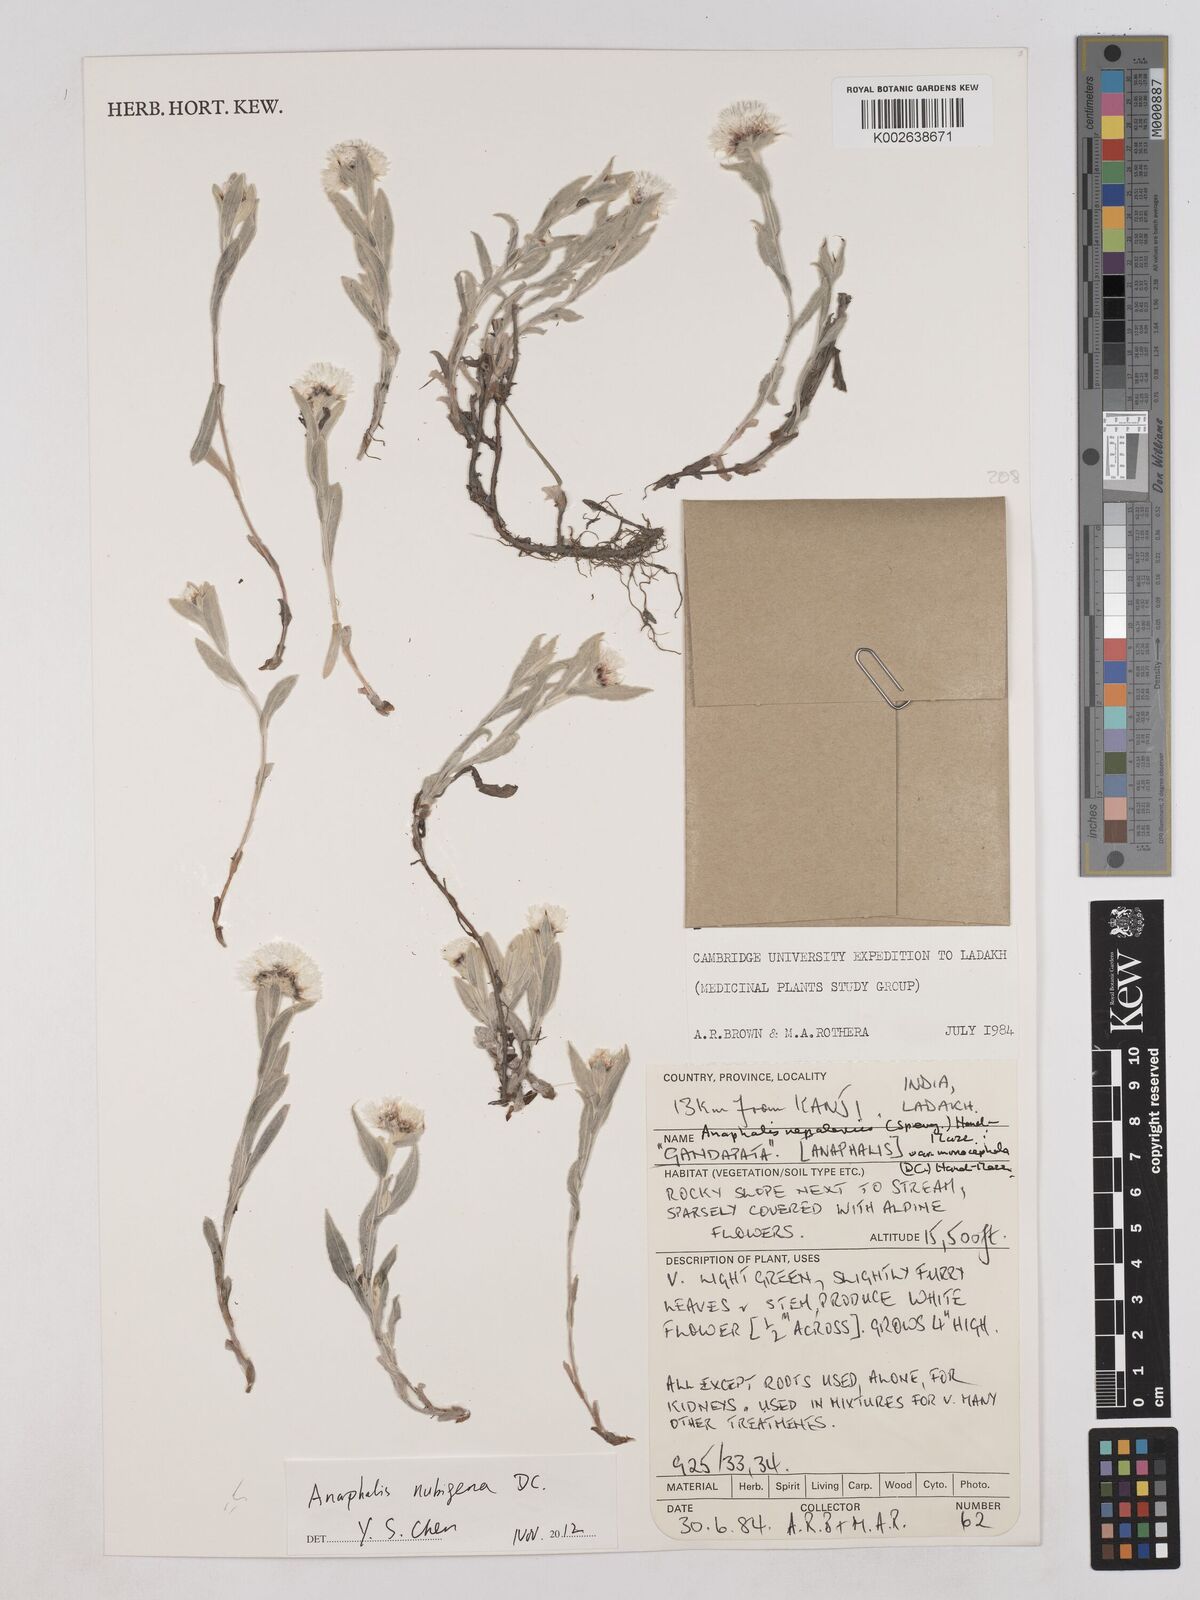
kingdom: Plantae
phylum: Tracheophyta
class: Magnoliopsida
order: Asterales
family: Asteraceae
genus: Anaphalis
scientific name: Anaphalis nepalensis
